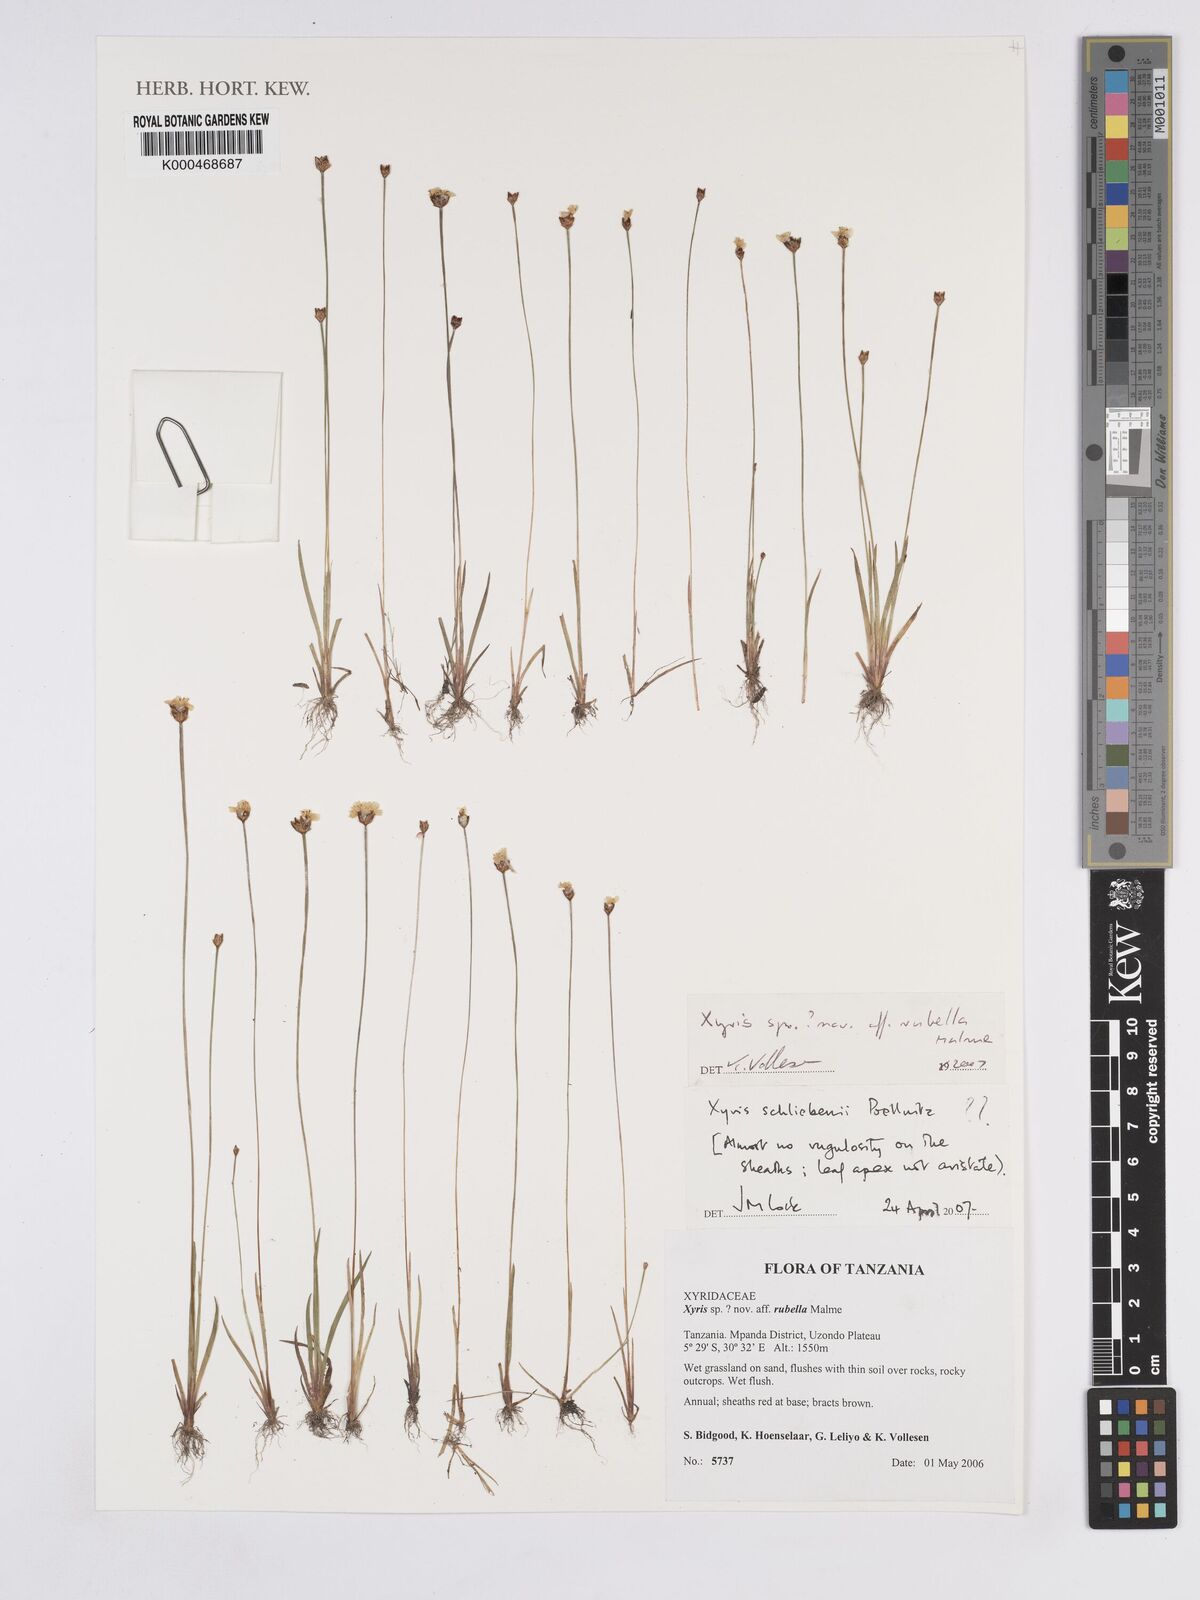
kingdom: Plantae
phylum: Tracheophyta
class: Liliopsida
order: Poales
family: Xyridaceae
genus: Xyris
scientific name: Xyris
